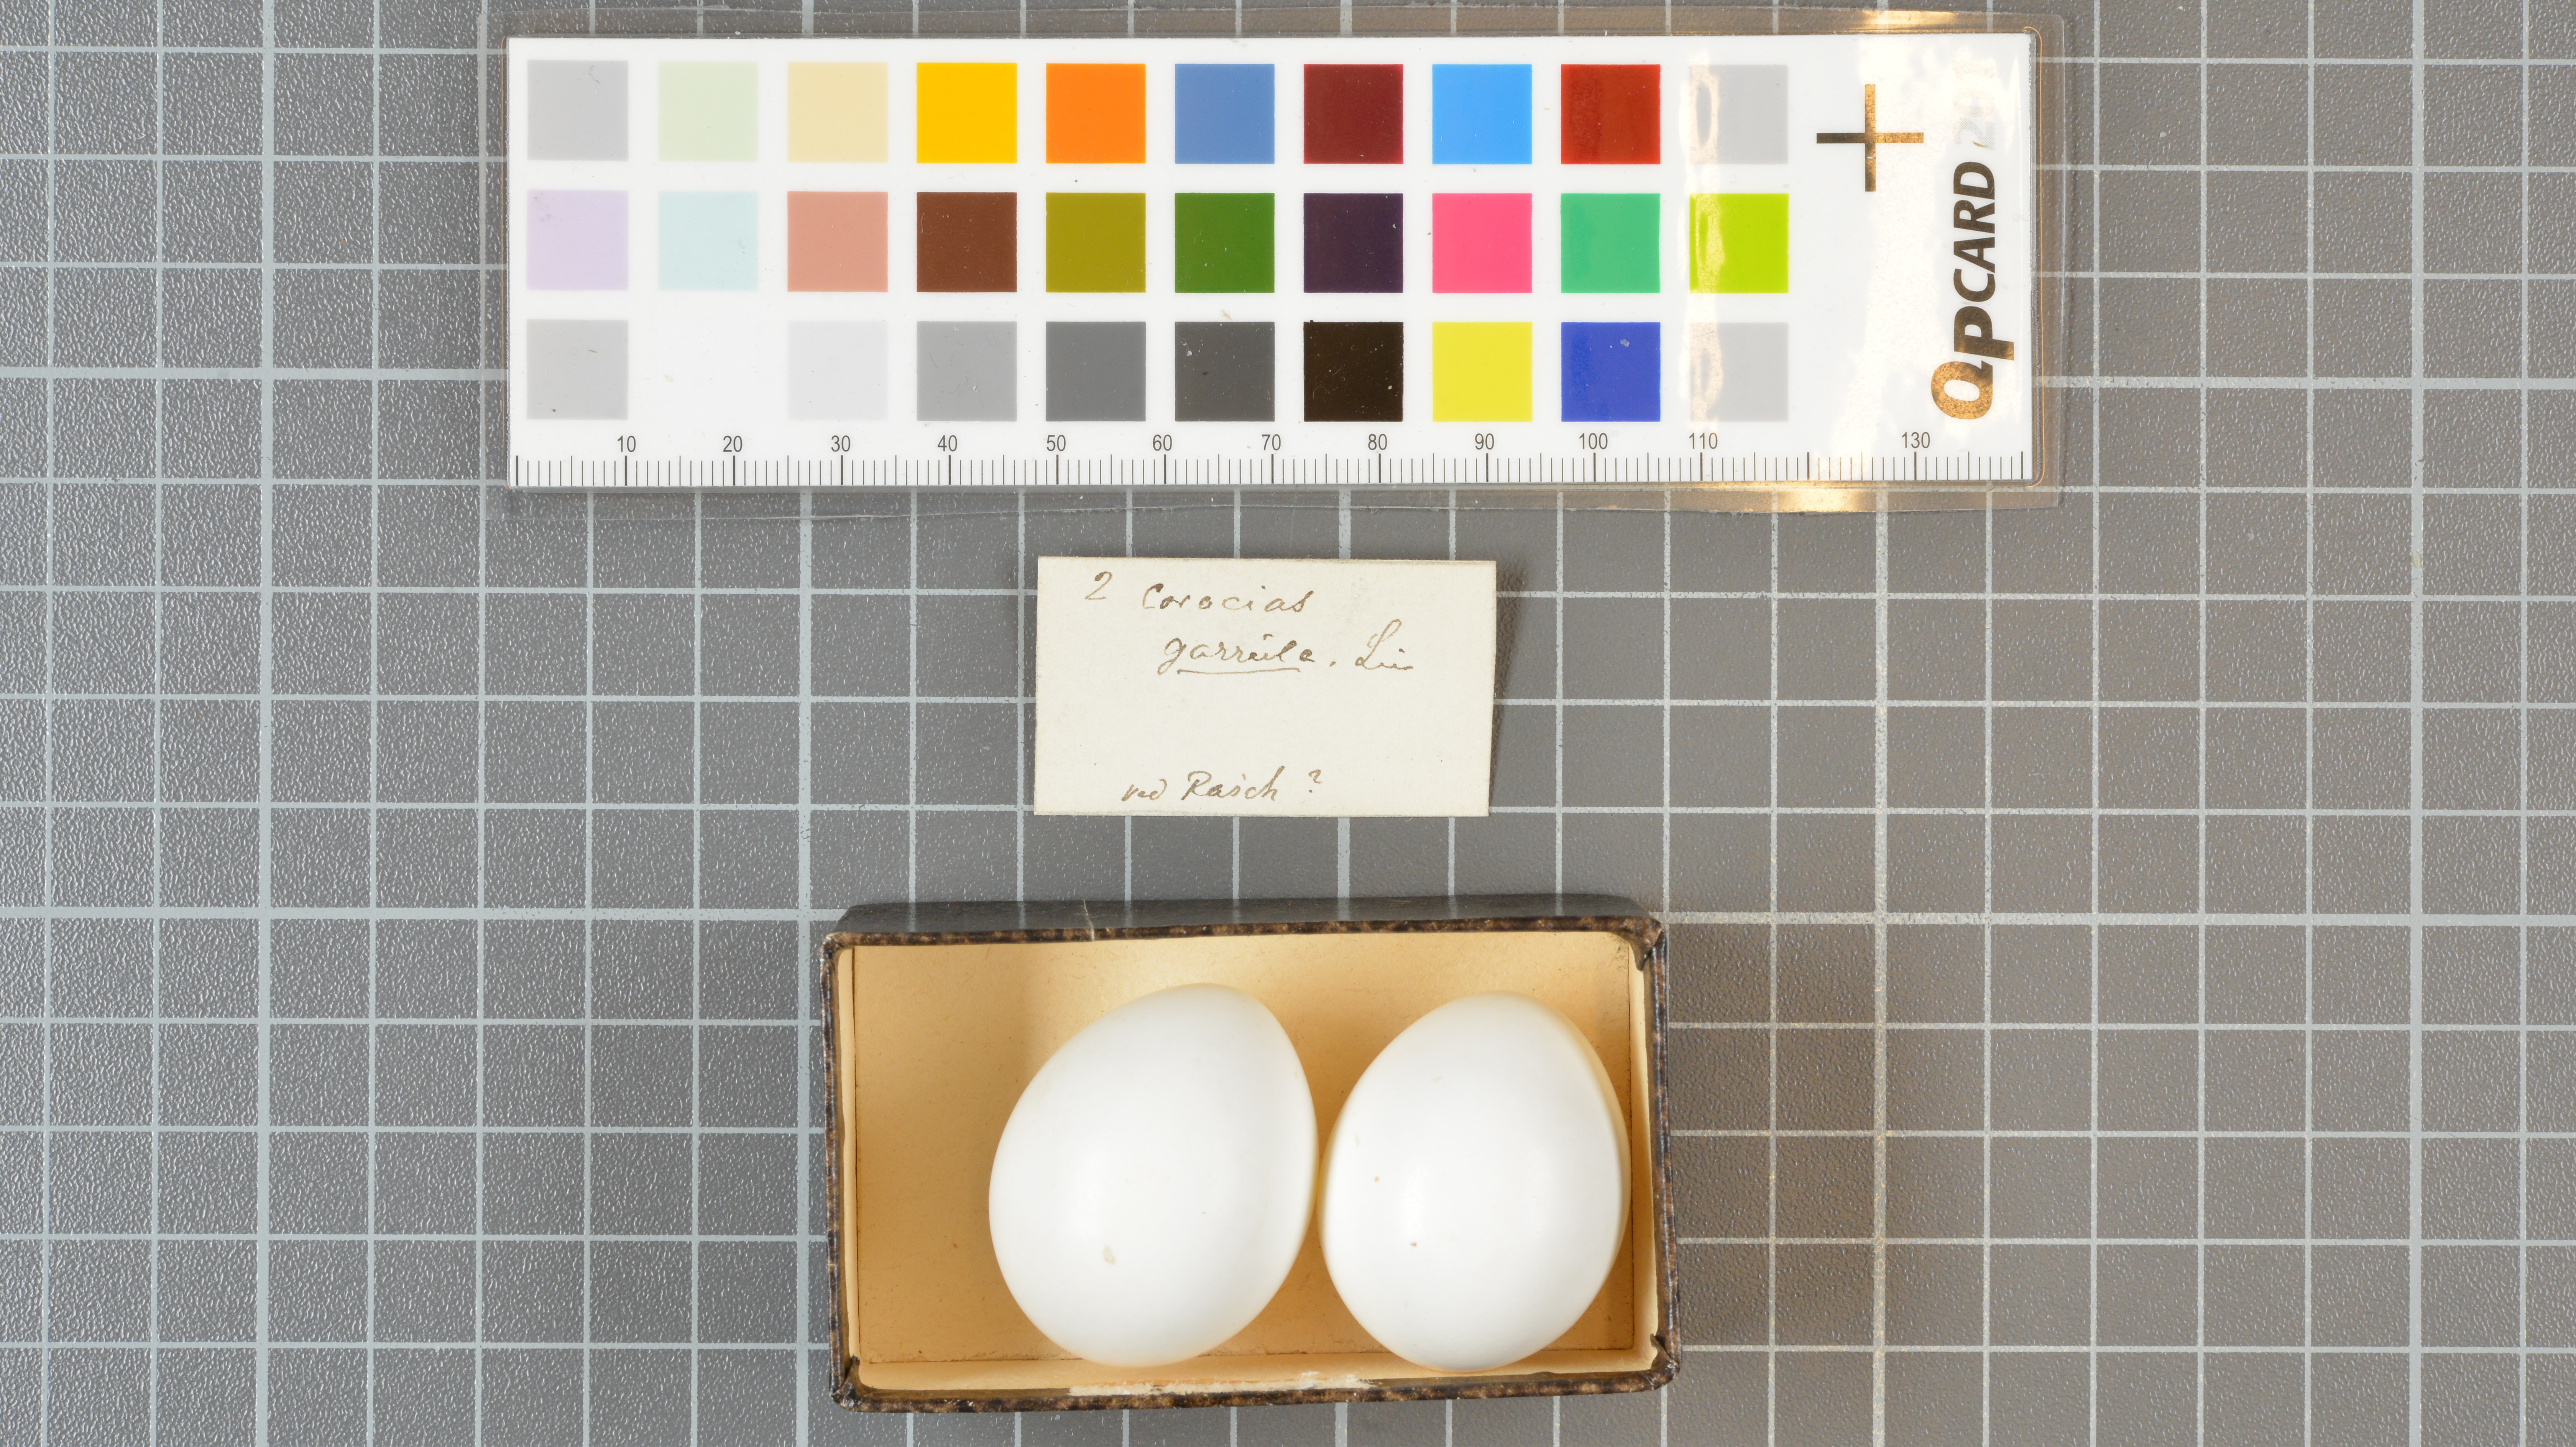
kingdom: Animalia
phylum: Chordata
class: Aves
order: Coraciiformes
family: Coraciidae
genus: Coracias
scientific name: Coracias garrulus
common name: European roller
